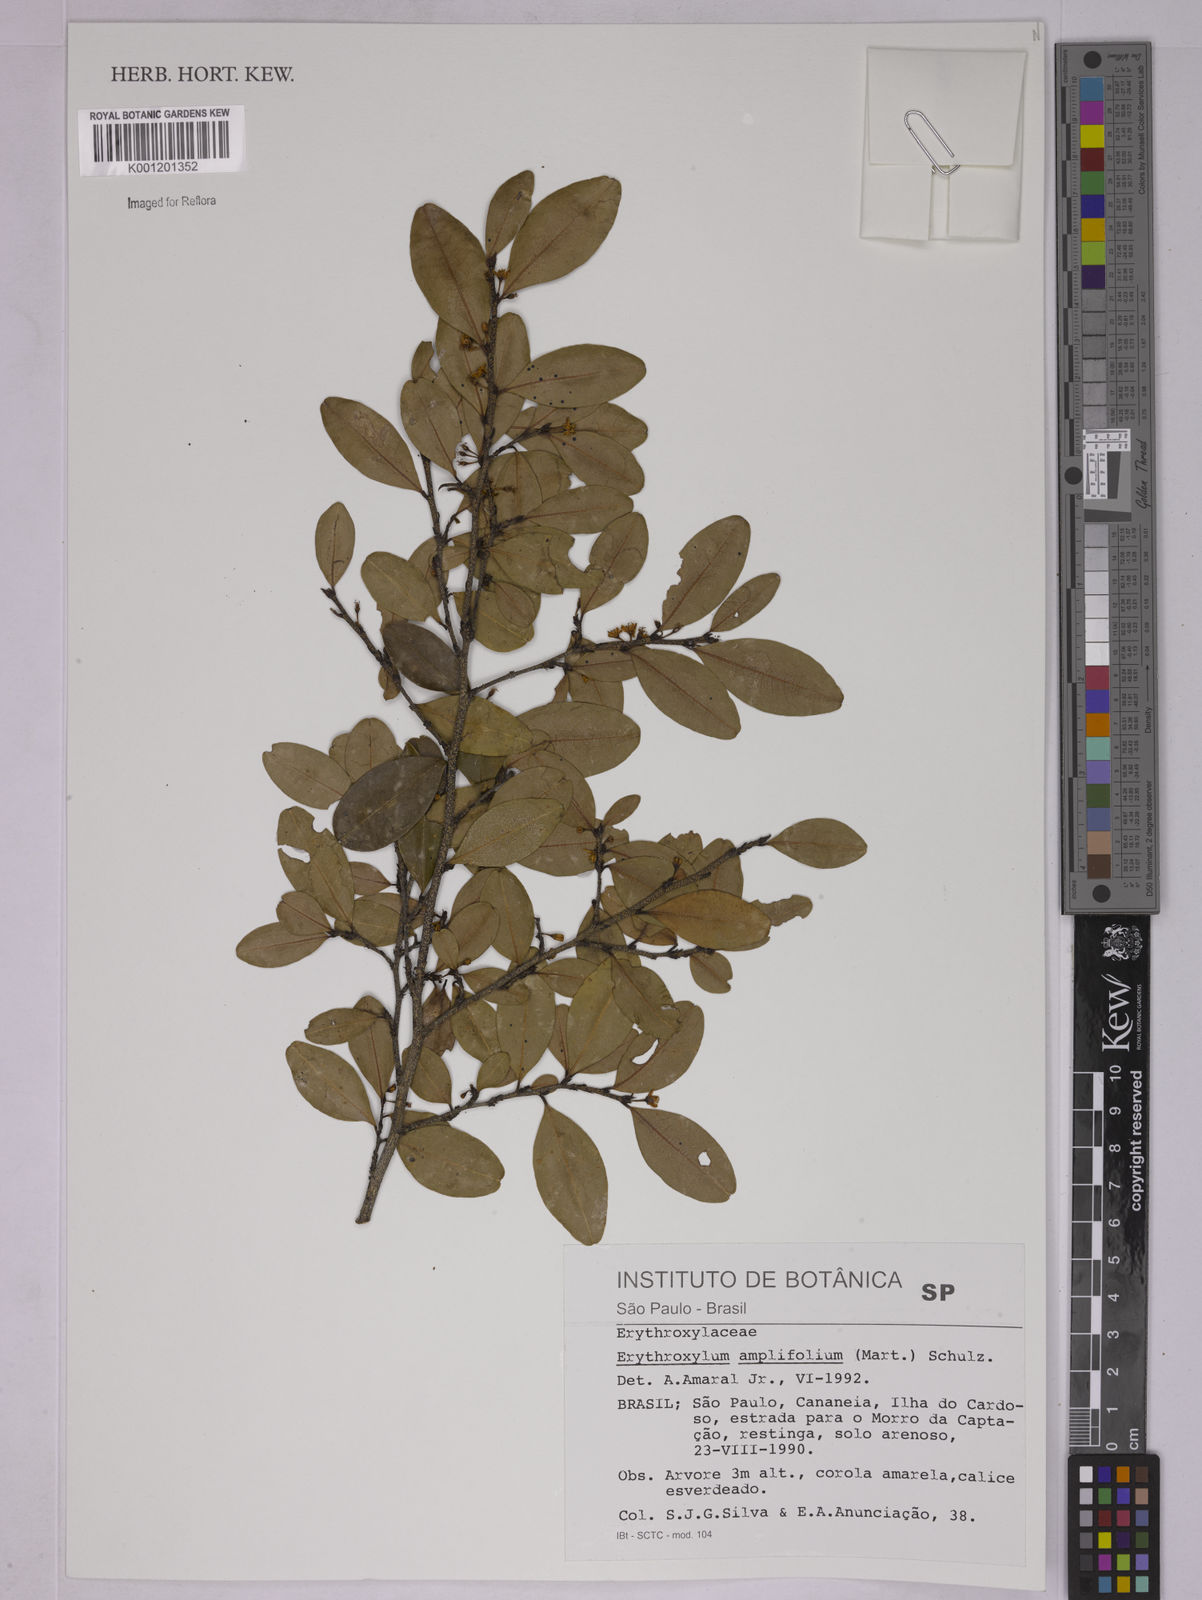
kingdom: Plantae
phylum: Tracheophyta
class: Magnoliopsida
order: Malpighiales
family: Erythroxylaceae
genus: Erythroxylum
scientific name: Erythroxylum
